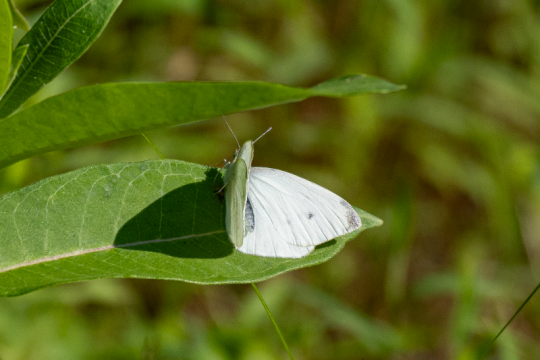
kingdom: Animalia
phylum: Arthropoda
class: Insecta
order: Lepidoptera
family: Pieridae
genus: Pieris
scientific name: Pieris rapae
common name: Cabbage White
